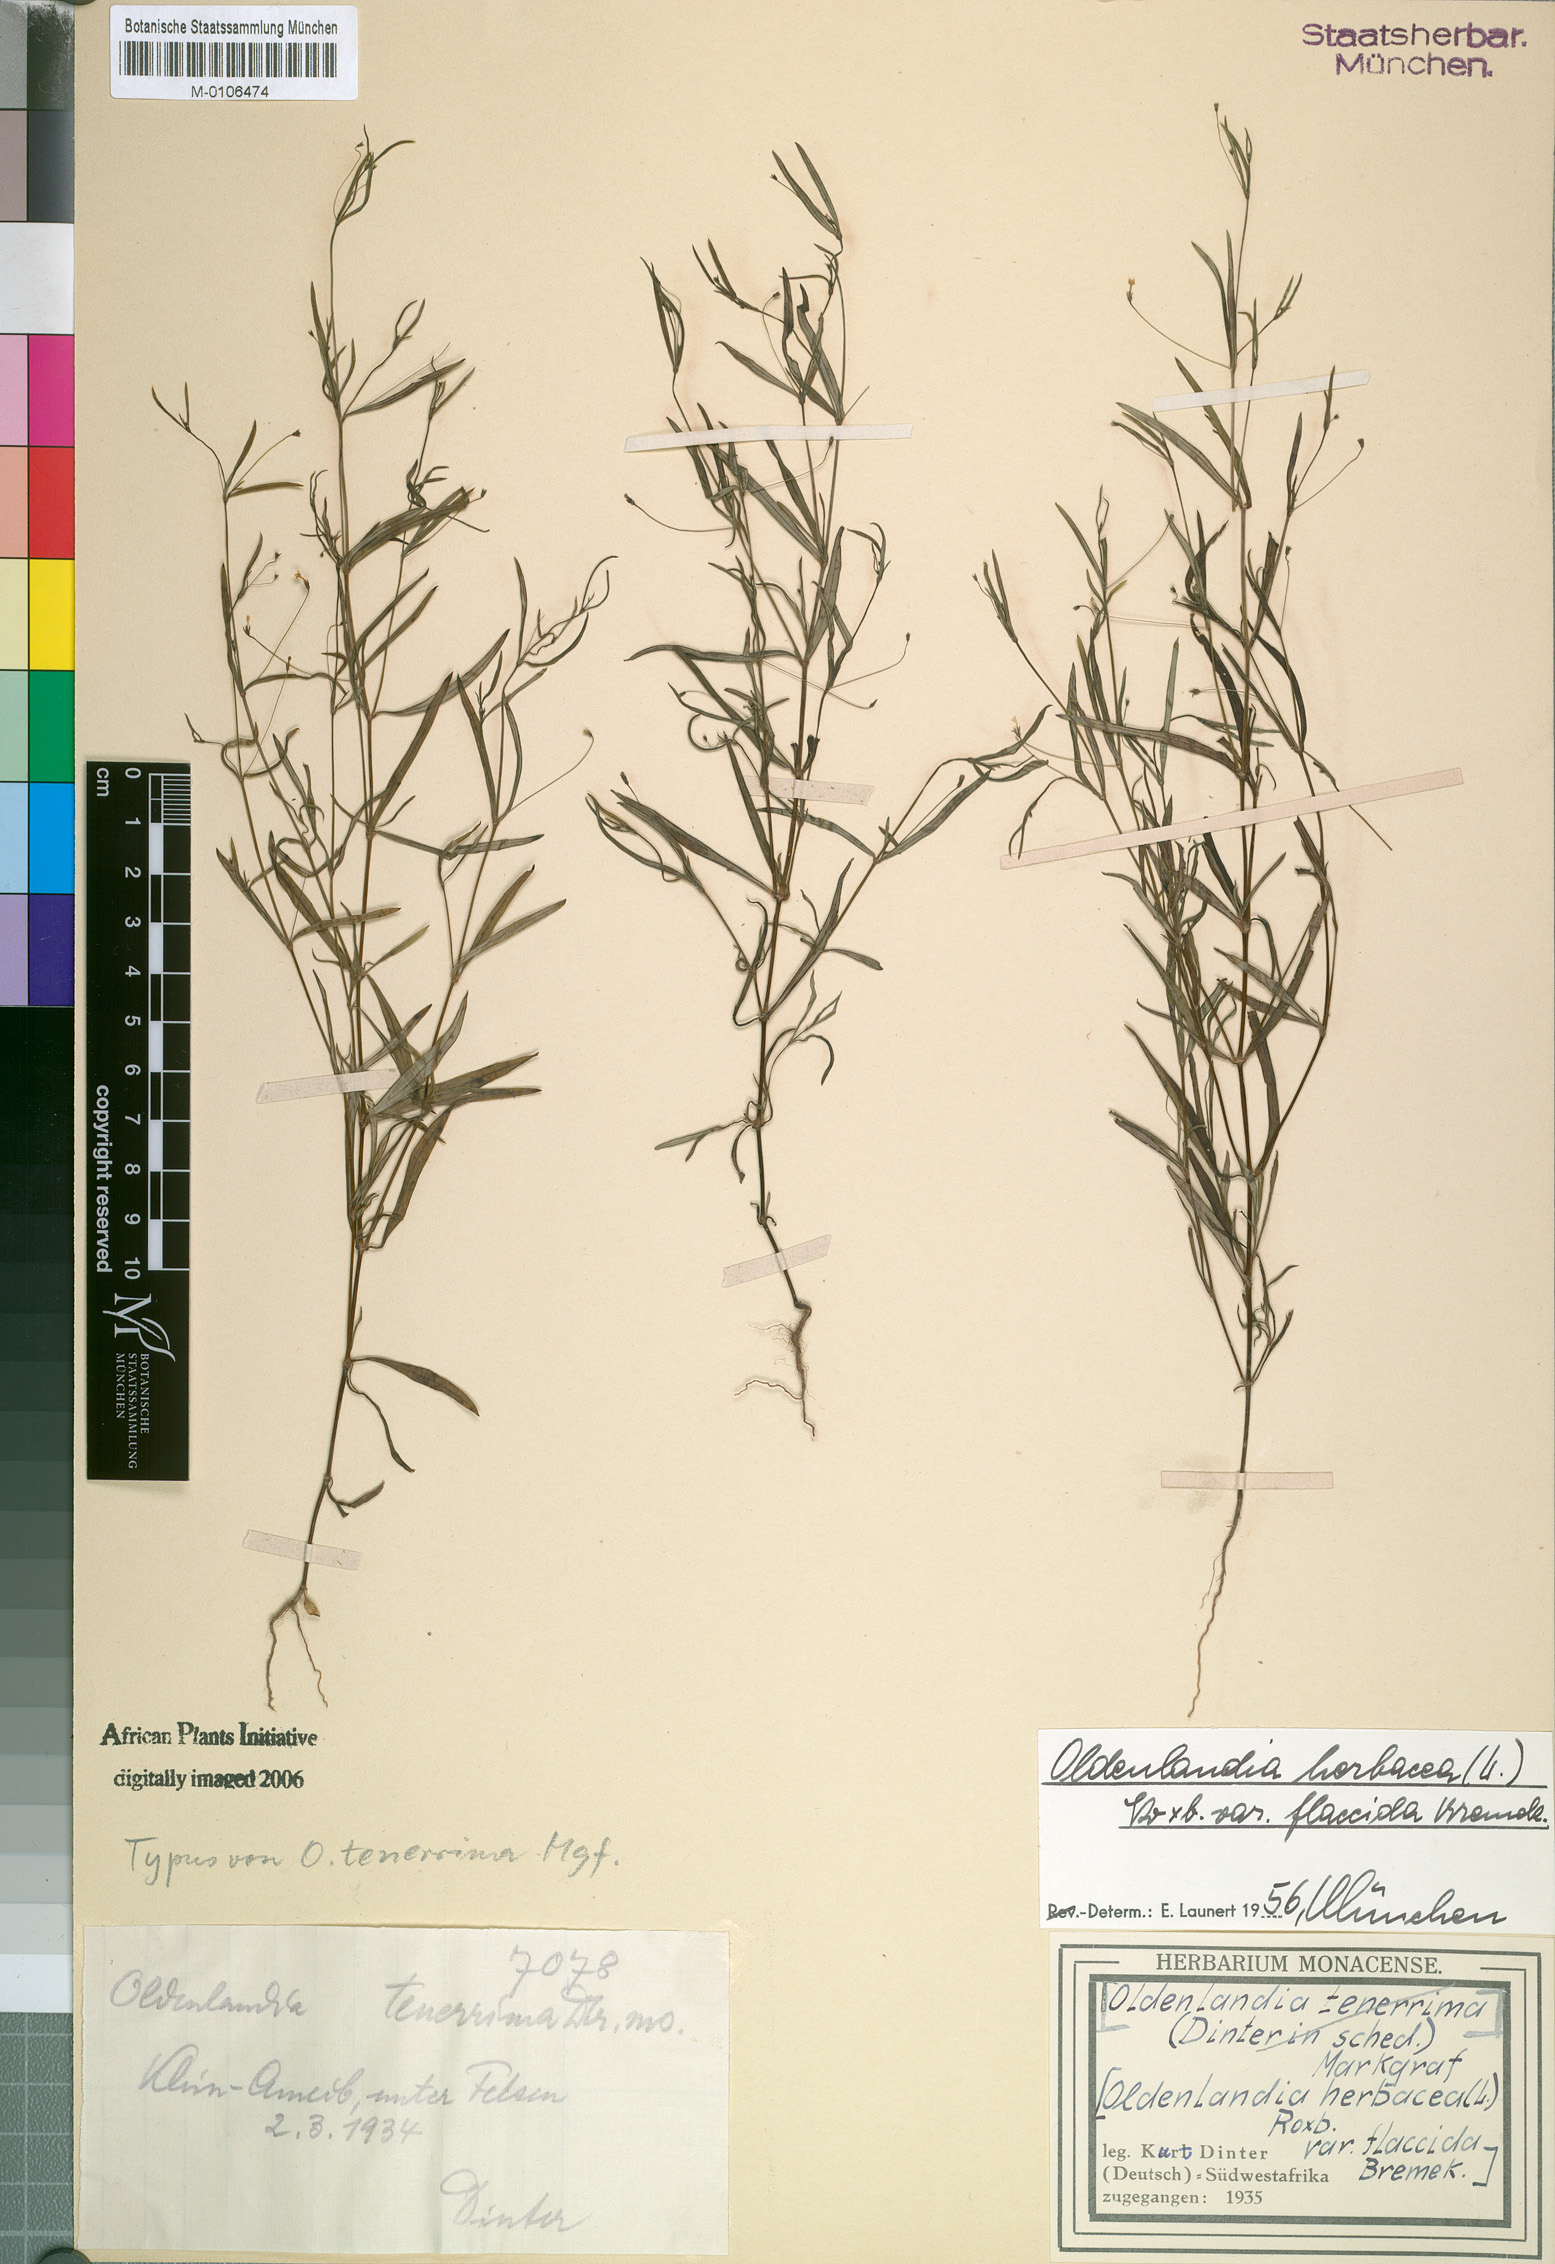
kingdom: Plantae
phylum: Tracheophyta
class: Magnoliopsida
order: Gentianales
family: Rubiaceae
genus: Oldenlandia
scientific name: Oldenlandia herbacea
